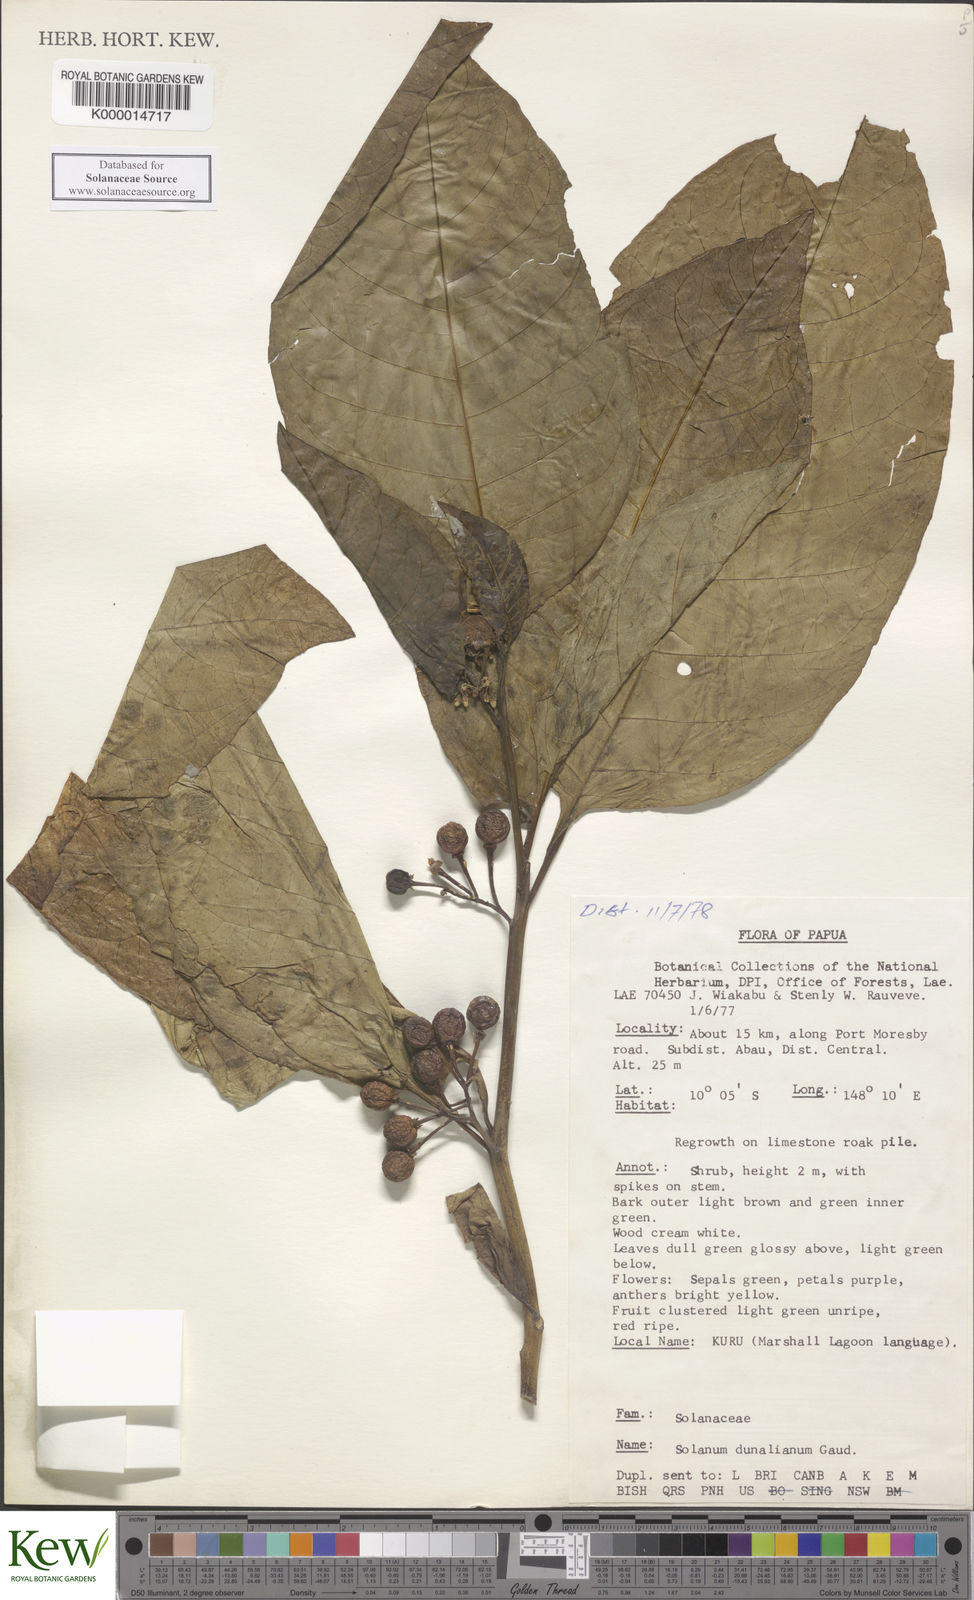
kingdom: Plantae
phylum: Tracheophyta
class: Magnoliopsida
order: Solanales
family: Solanaceae
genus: Solanum
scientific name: Solanum dunalianum
